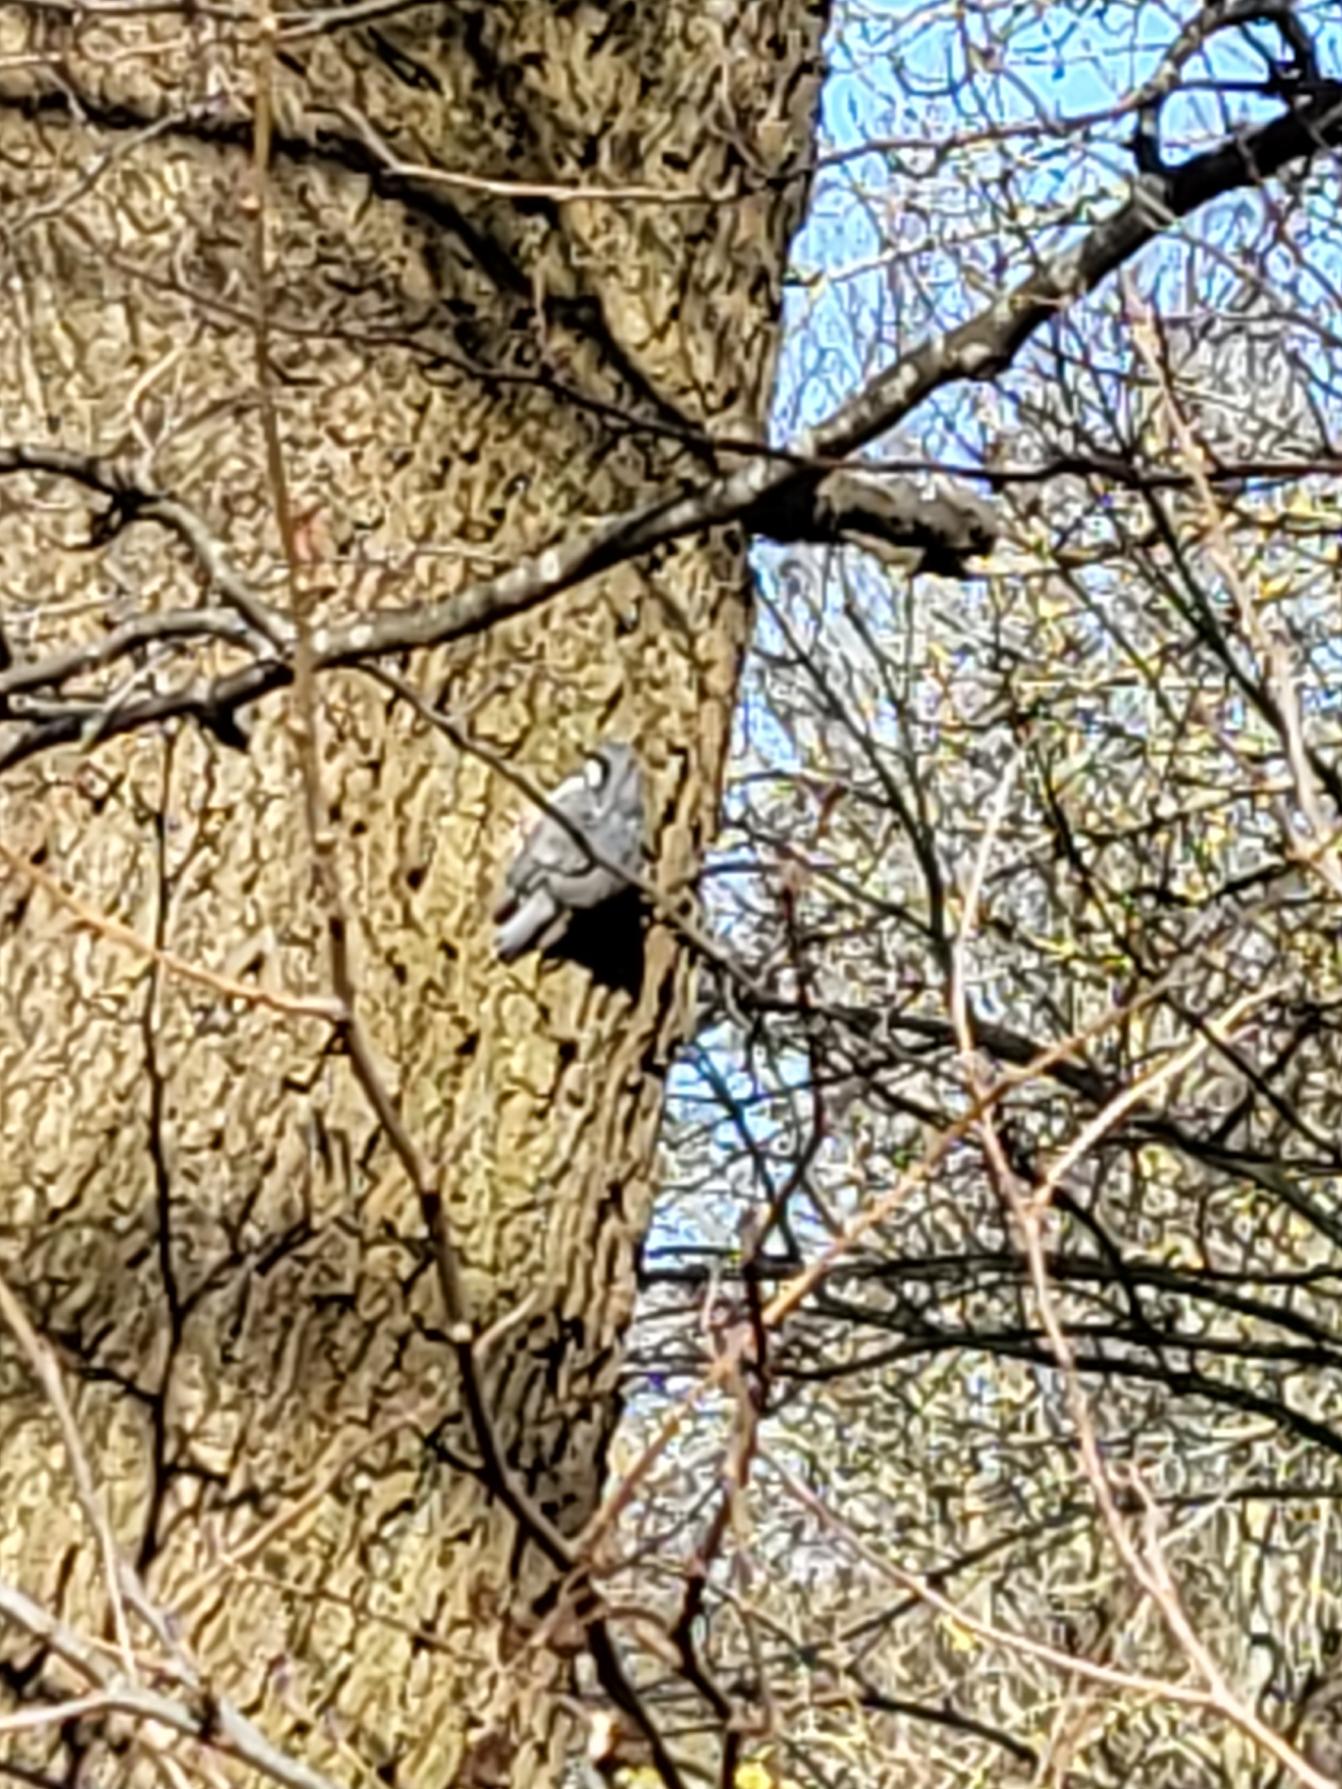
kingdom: Animalia
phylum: Chordata
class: Aves
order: Passeriformes
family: Sittidae
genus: Sitta
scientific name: Sitta europaea
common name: Spætmejse
